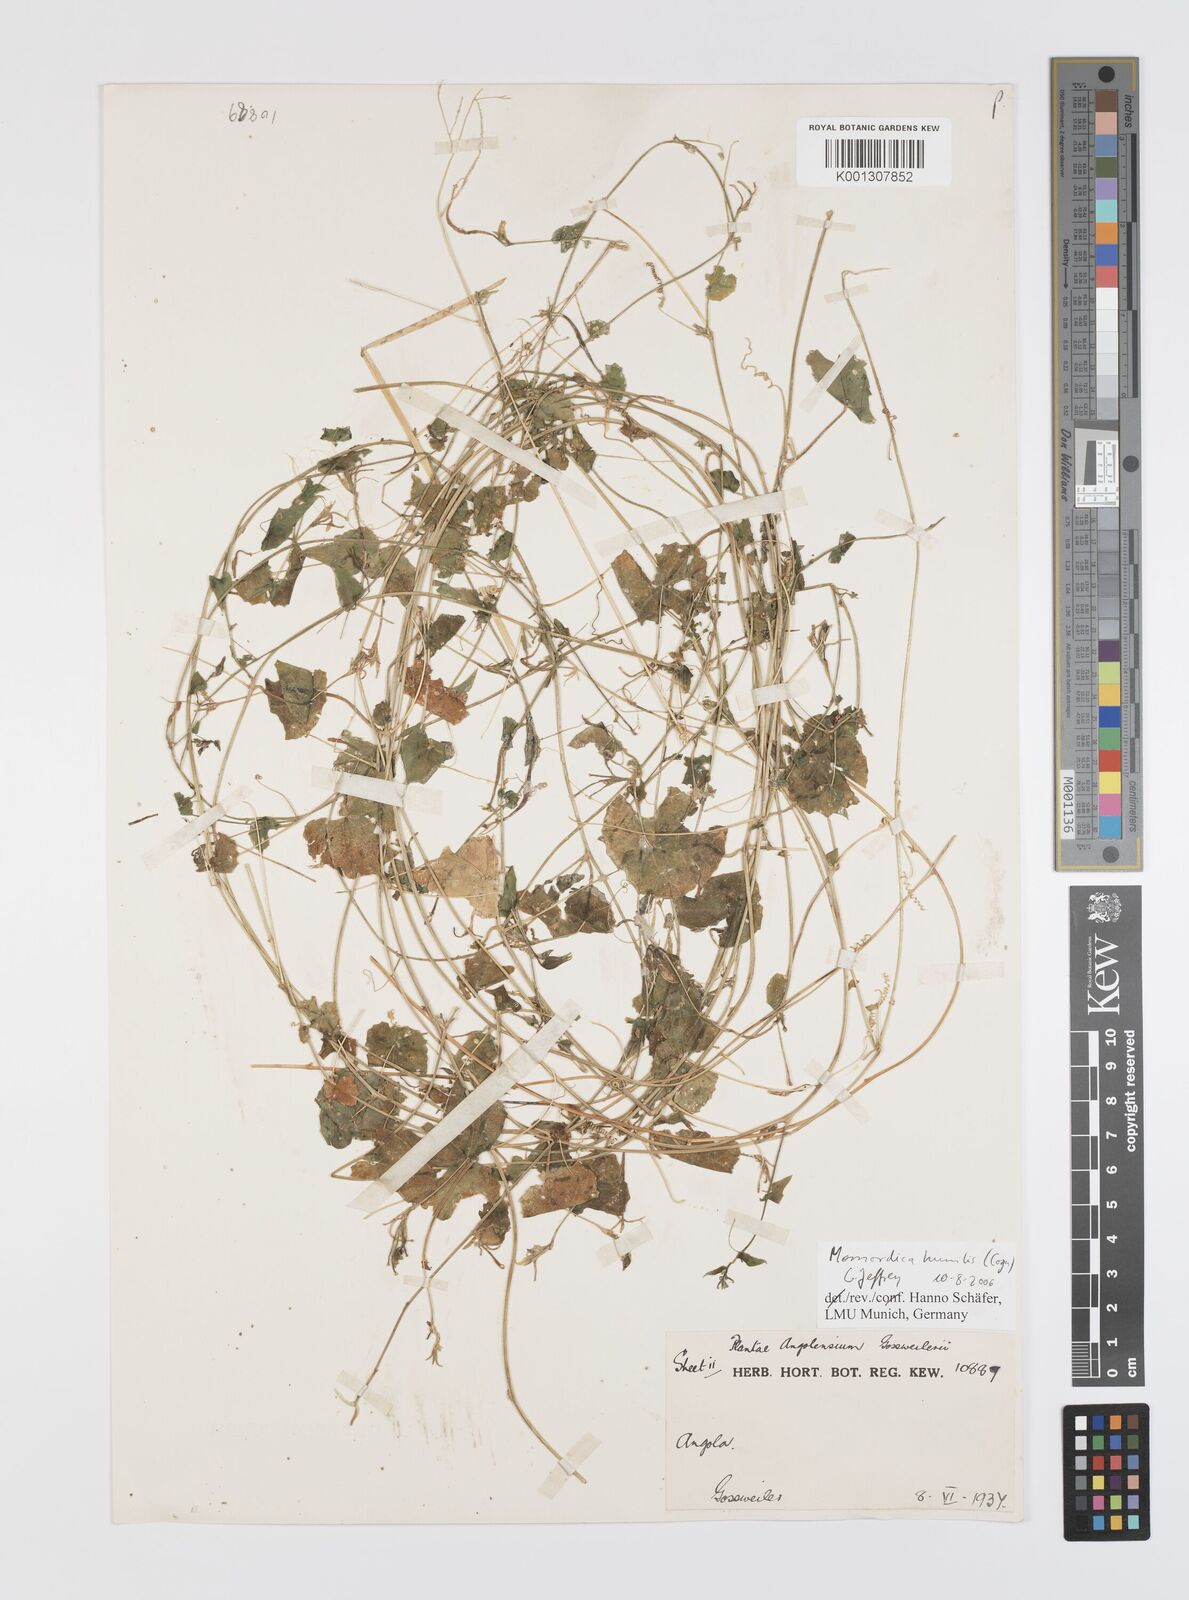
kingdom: Plantae
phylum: Tracheophyta
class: Magnoliopsida
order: Cucurbitales
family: Cucurbitaceae
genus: Momordica
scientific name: Momordica humilis
